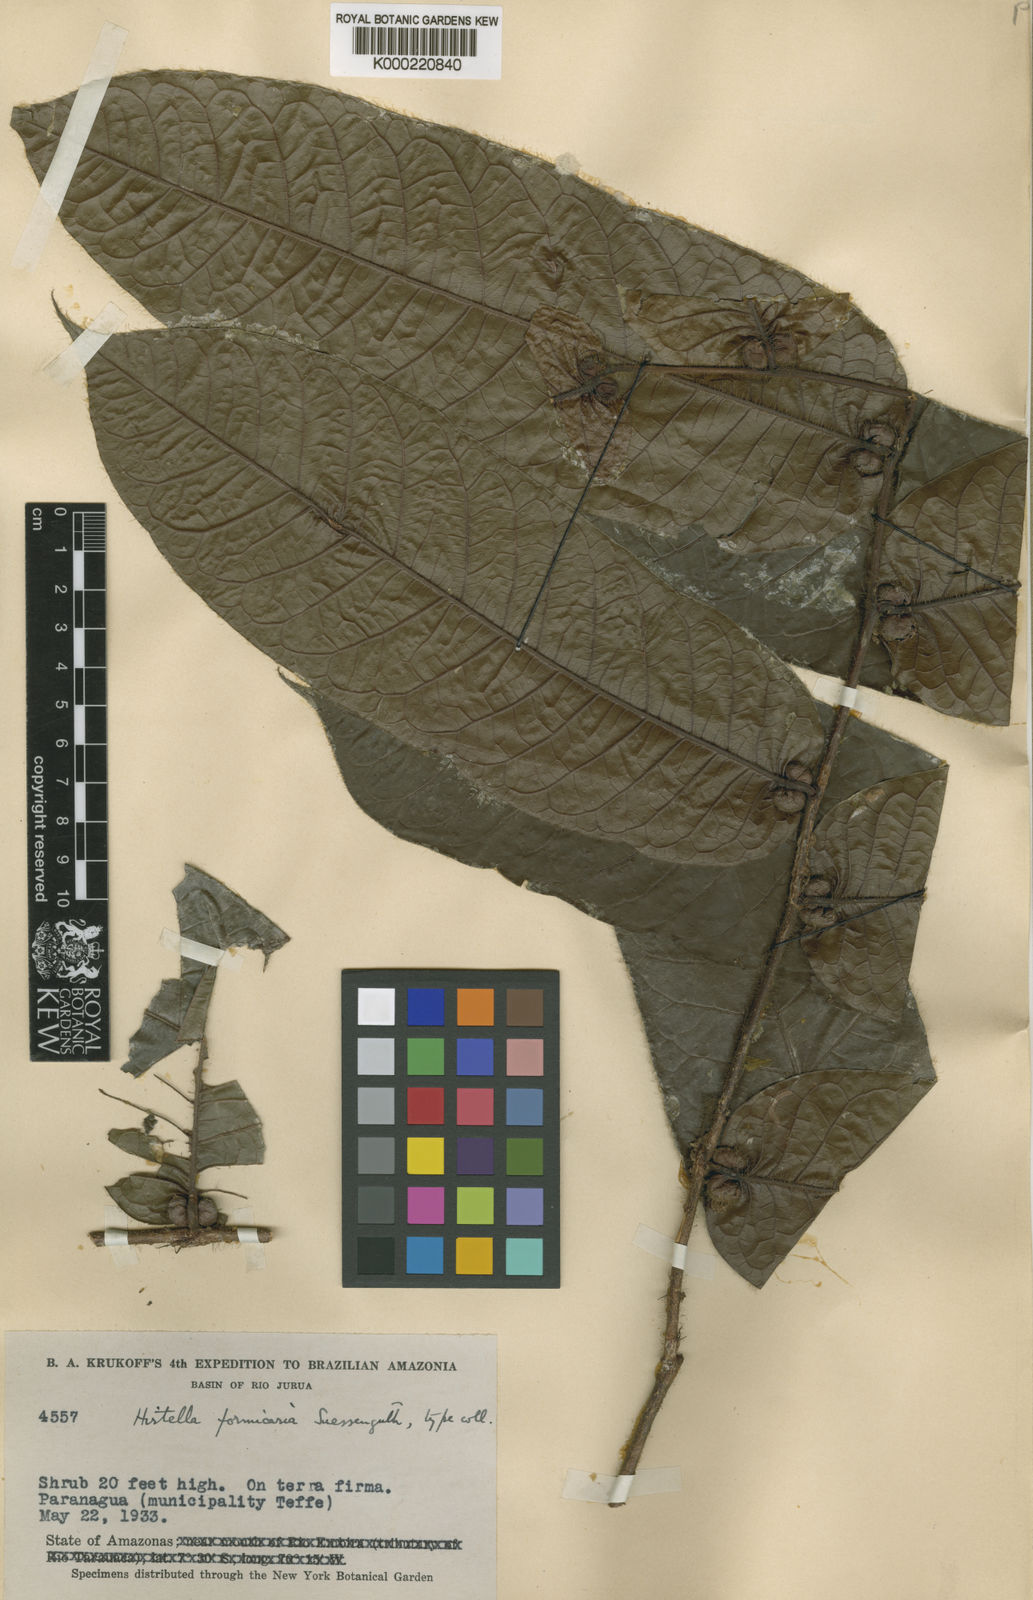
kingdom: Plantae
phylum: Tracheophyta
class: Magnoliopsida
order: Malpighiales
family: Chrysobalanaceae
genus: Hirtella
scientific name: Hirtella duckei
